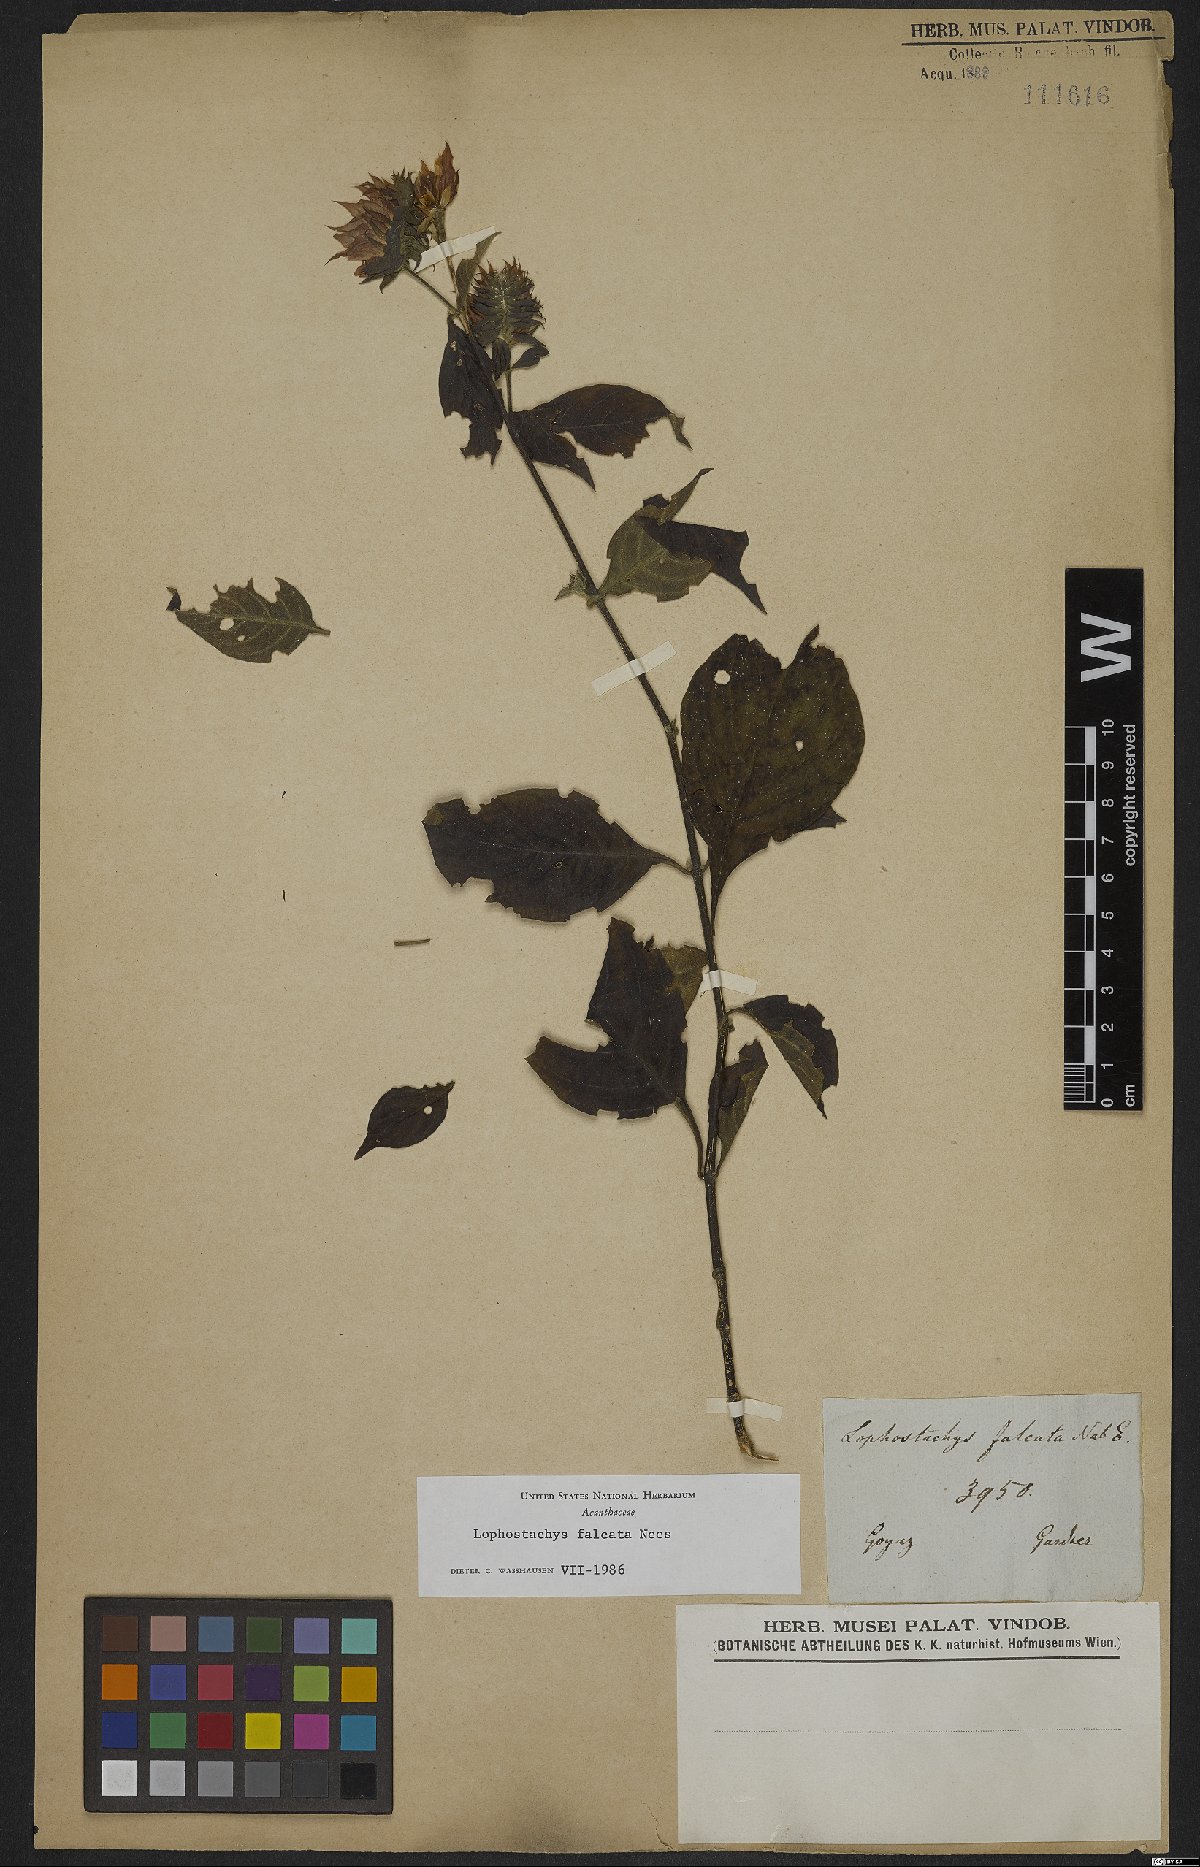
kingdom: Plantae
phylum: Tracheophyta
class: Magnoliopsida
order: Lamiales
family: Acanthaceae
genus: Lepidagathis
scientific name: Lepidagathis Lophostachys falcata
